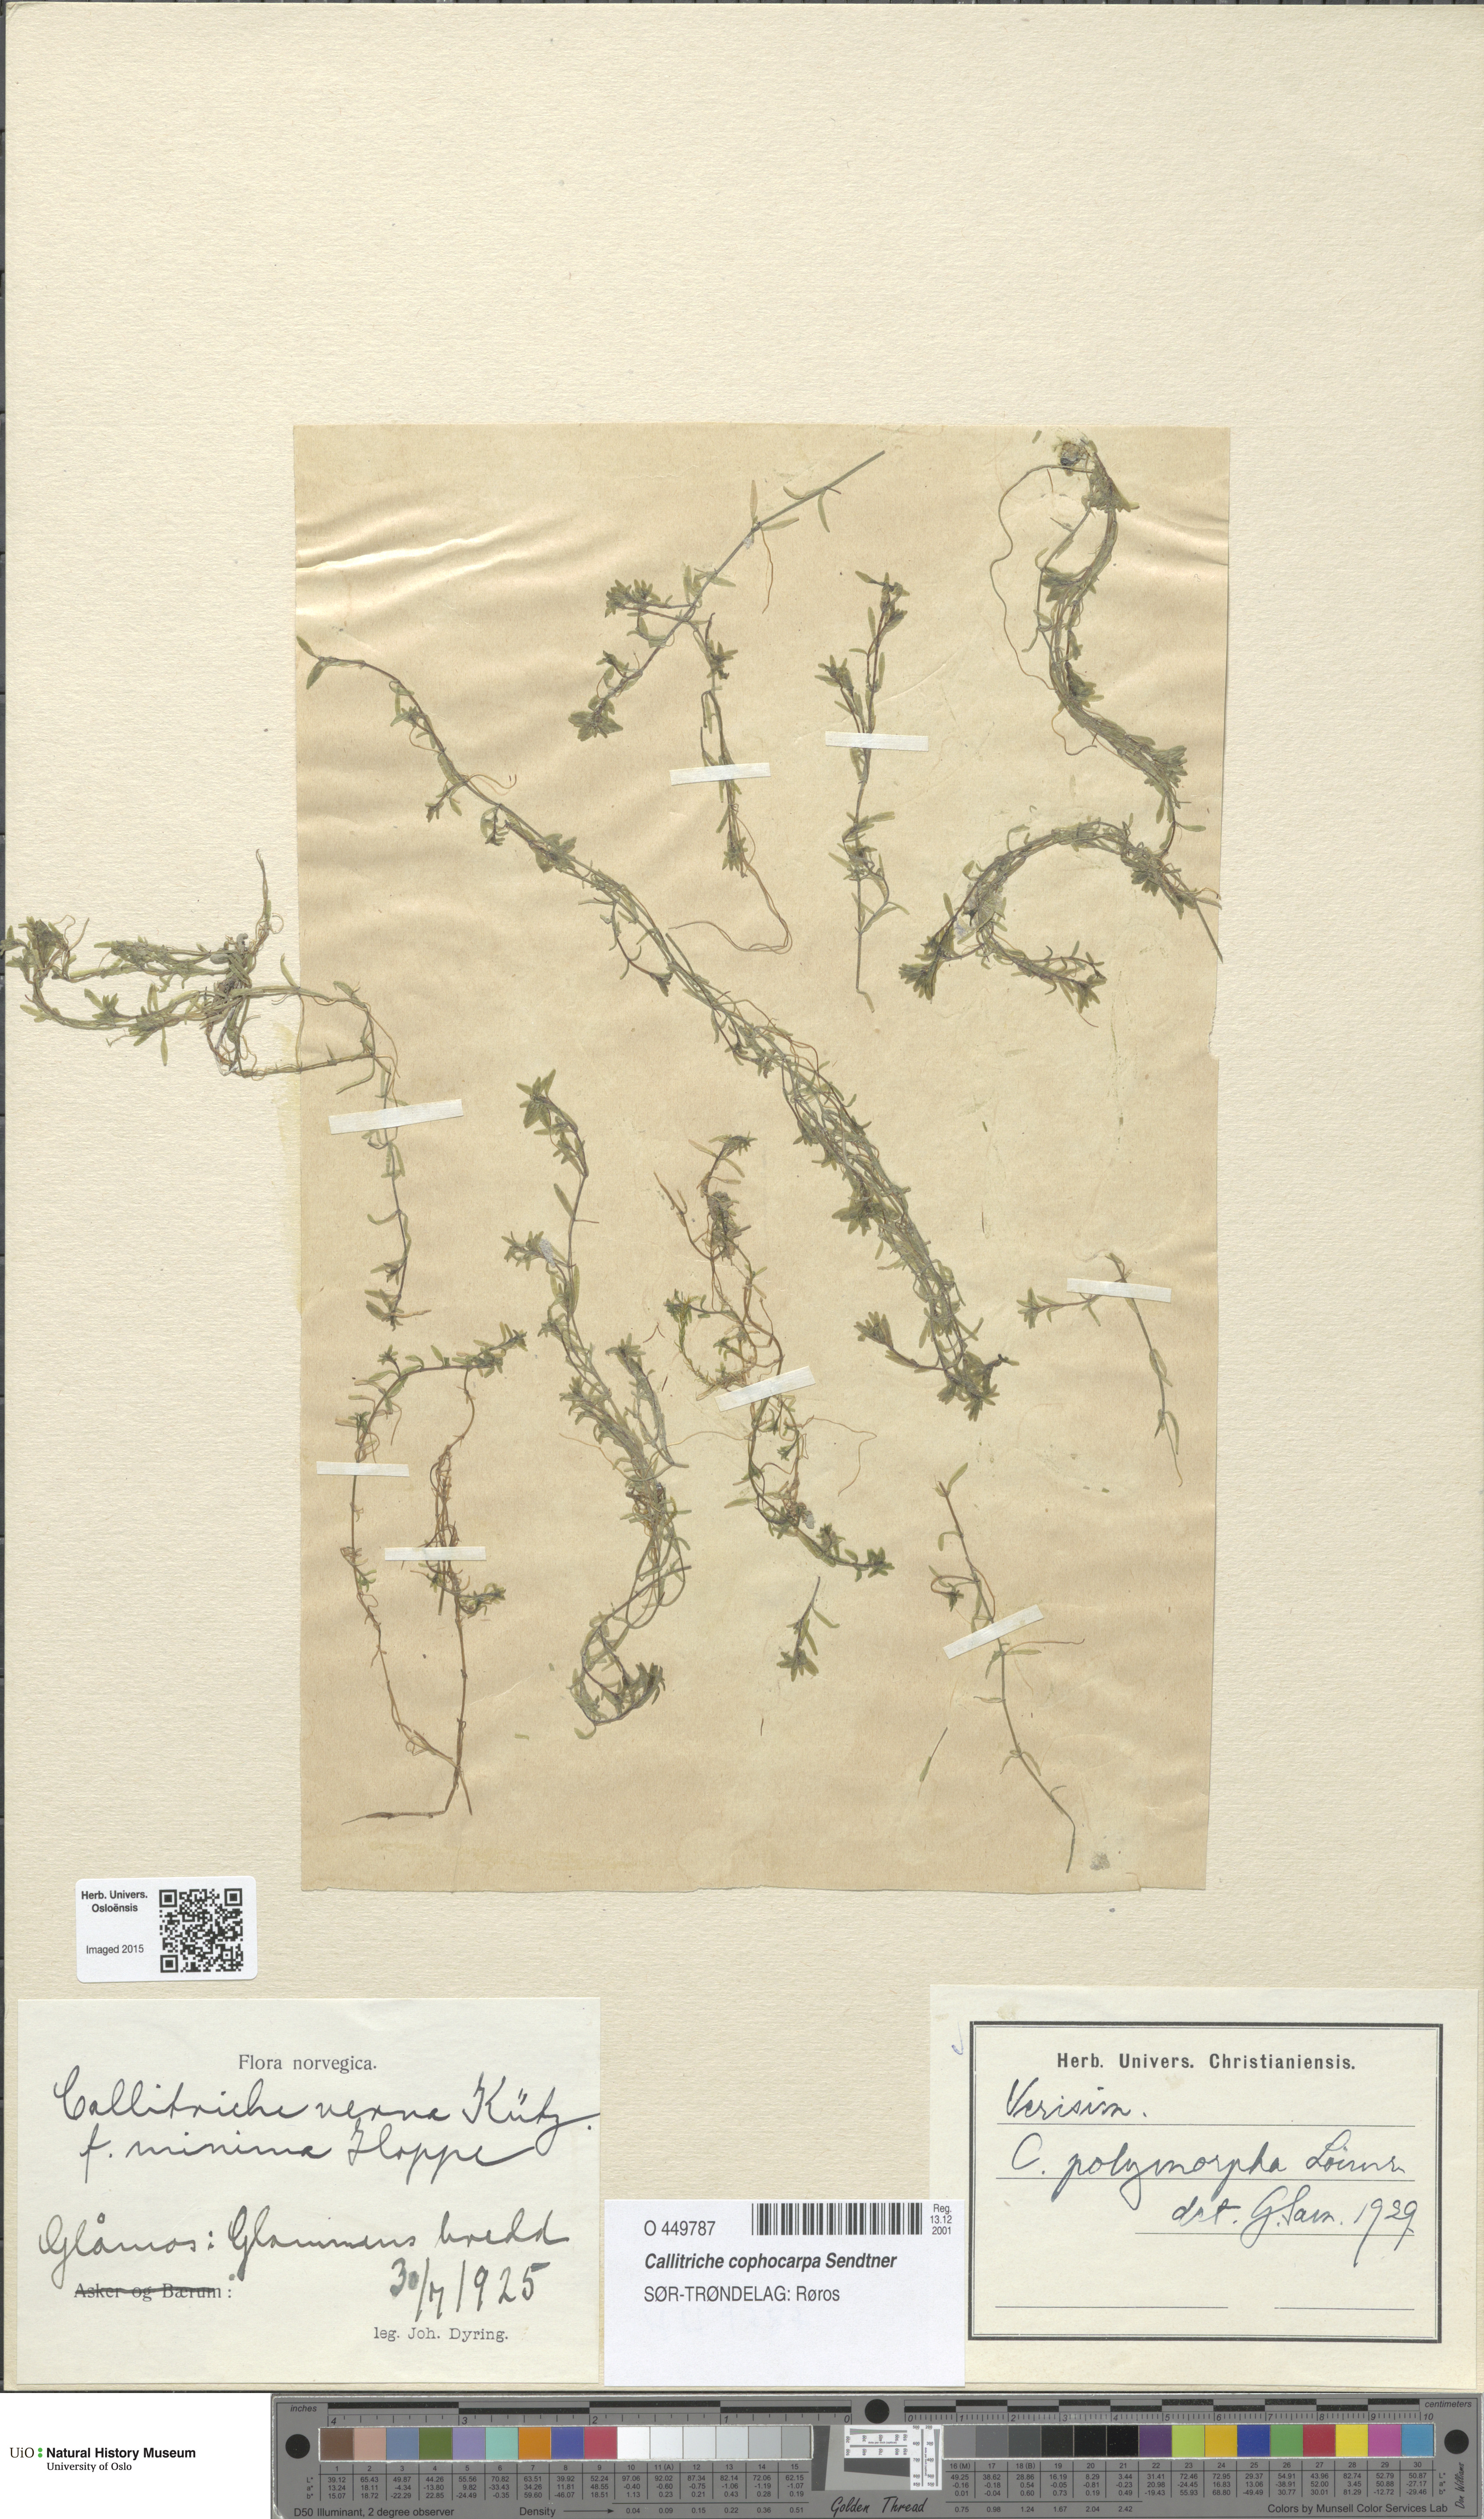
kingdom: Plantae
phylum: Tracheophyta
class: Magnoliopsida
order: Lamiales
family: Plantaginaceae
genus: Callitriche
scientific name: Callitriche cophocarpa
